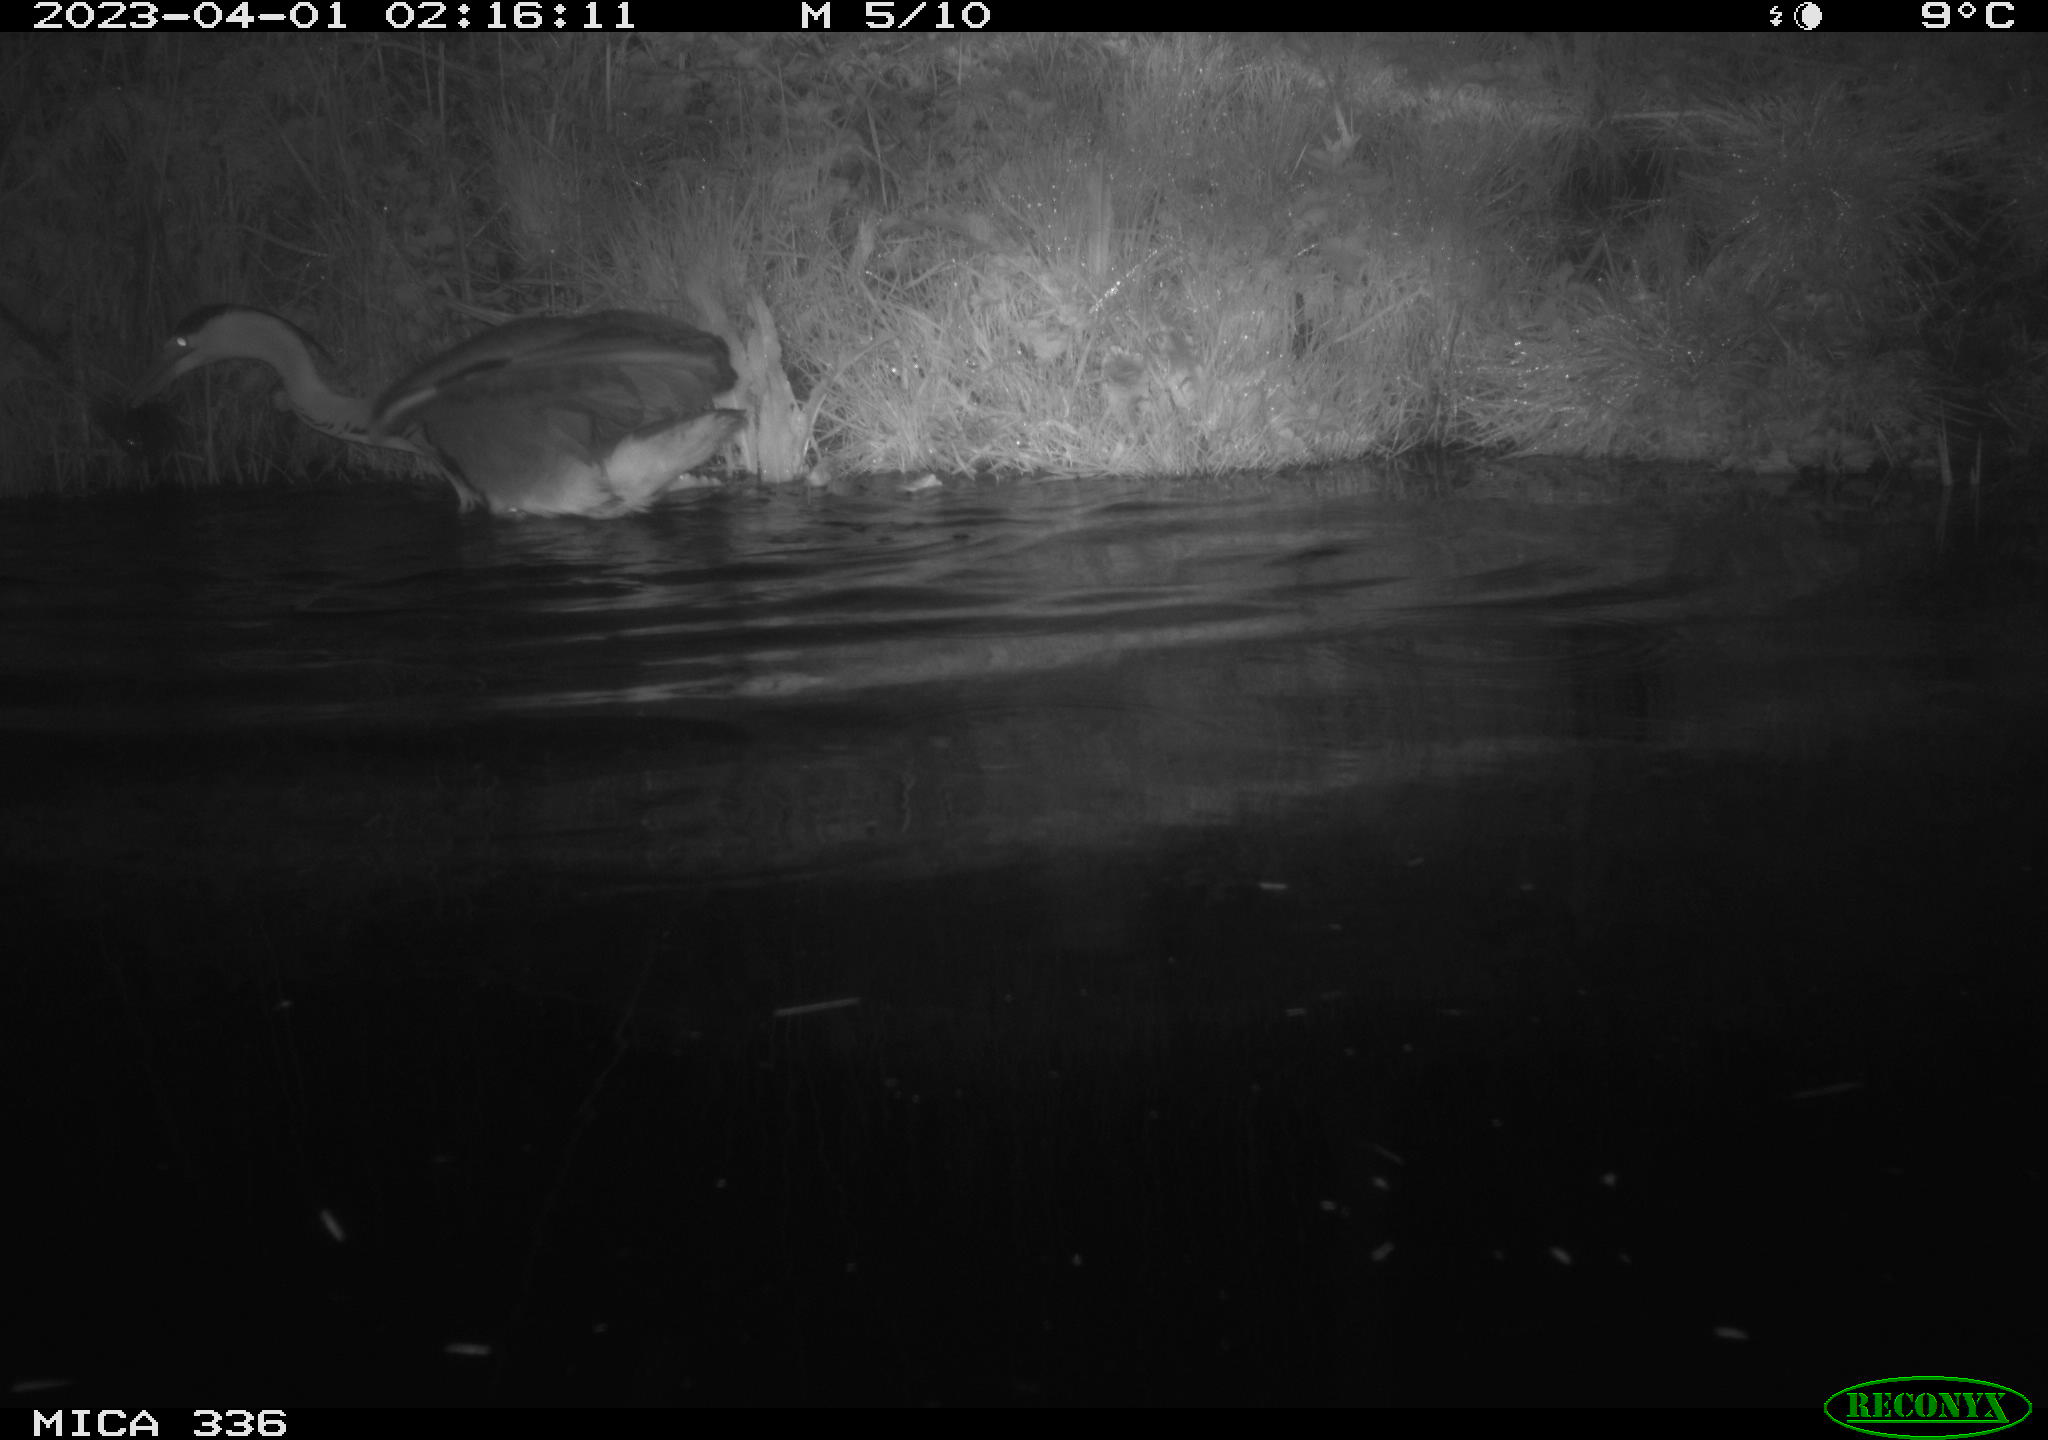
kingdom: Animalia
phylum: Chordata
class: Aves
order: Pelecaniformes
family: Ardeidae
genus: Ardea
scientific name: Ardea
